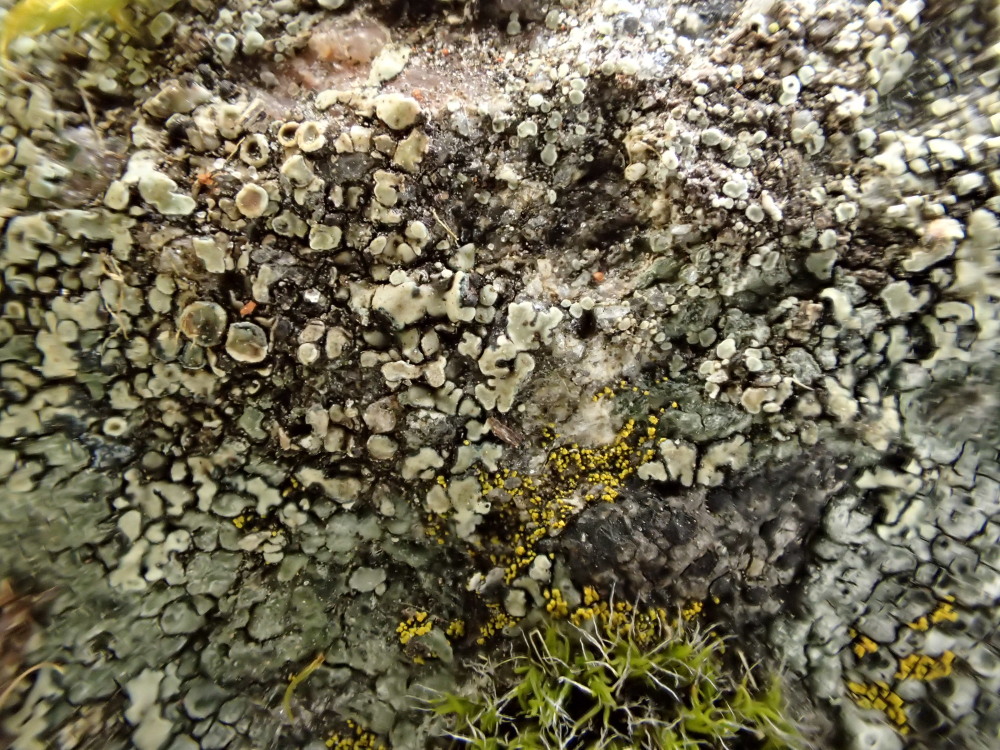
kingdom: Fungi
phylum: Ascomycota
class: Lecanoromycetes
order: Lecanorales
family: Lecanoraceae
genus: Protoparmeliopsis
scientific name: Protoparmeliopsis muralis
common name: randfliget kantskivelav
